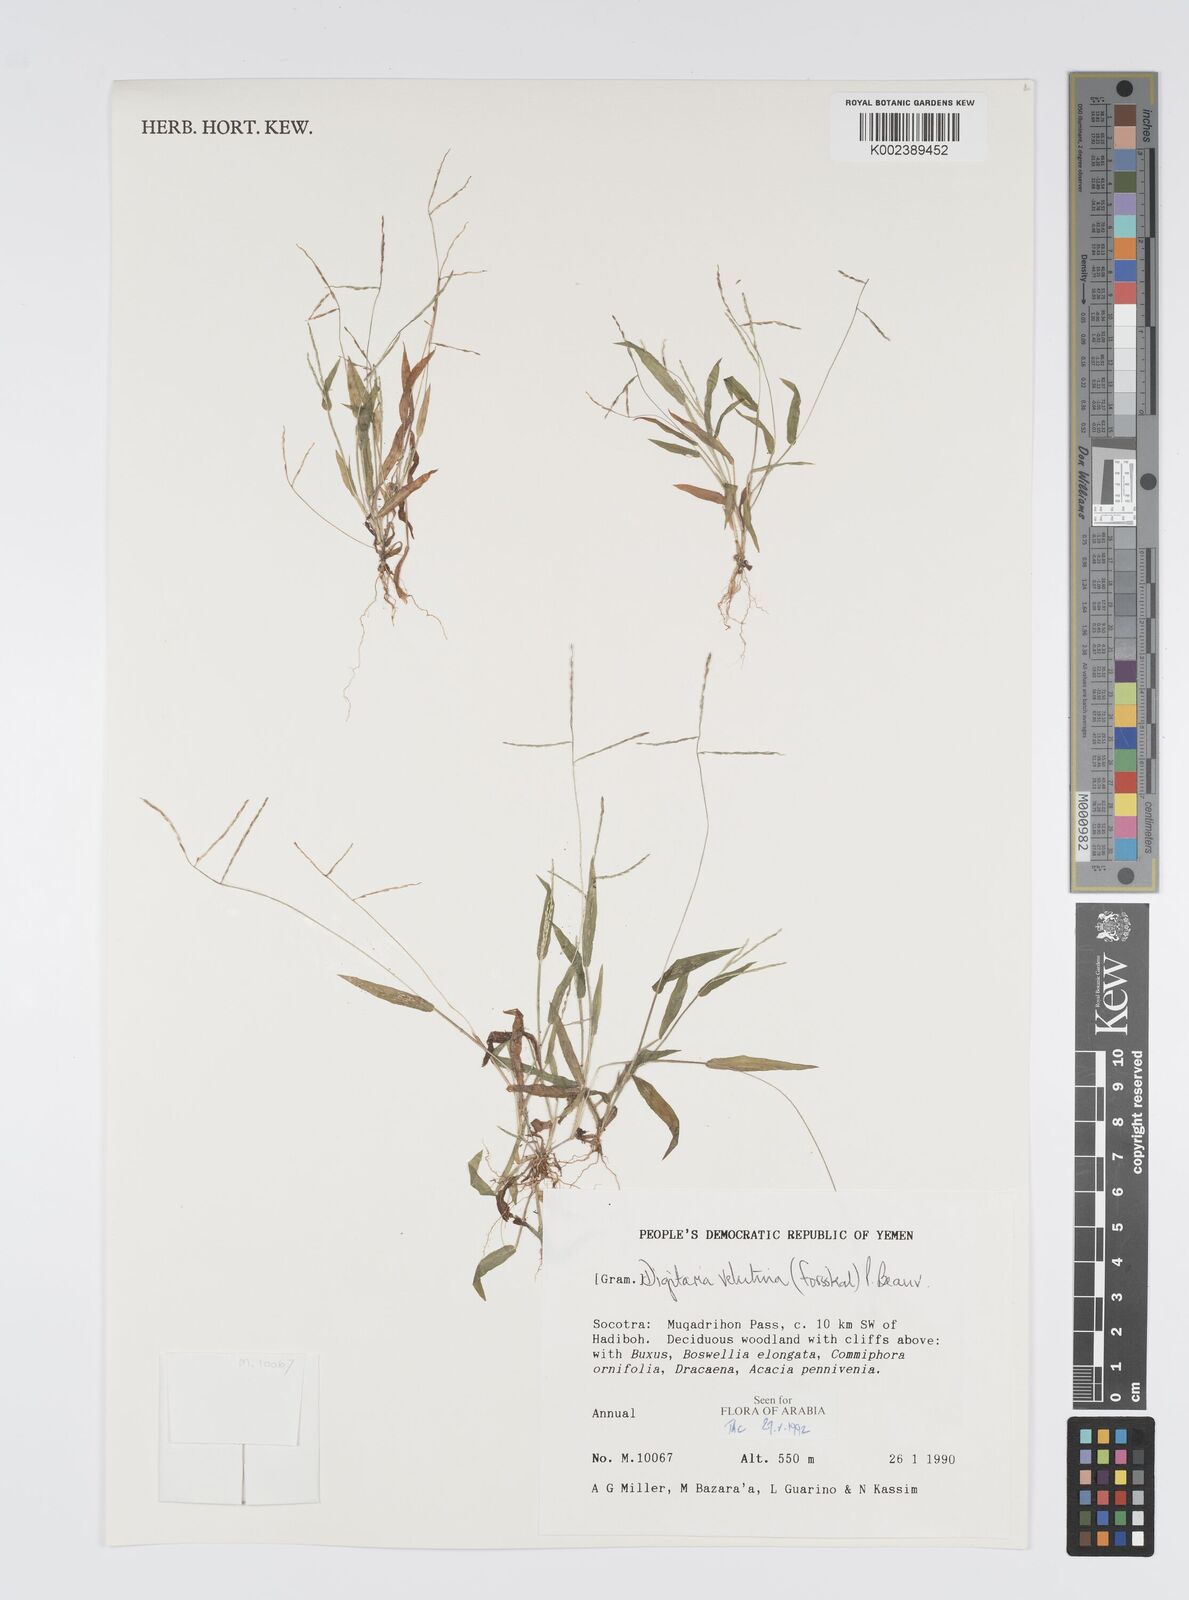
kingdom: Plantae
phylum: Tracheophyta
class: Liliopsida
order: Poales
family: Poaceae
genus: Digitaria
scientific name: Digitaria velutina
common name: Long-plume finger grass
